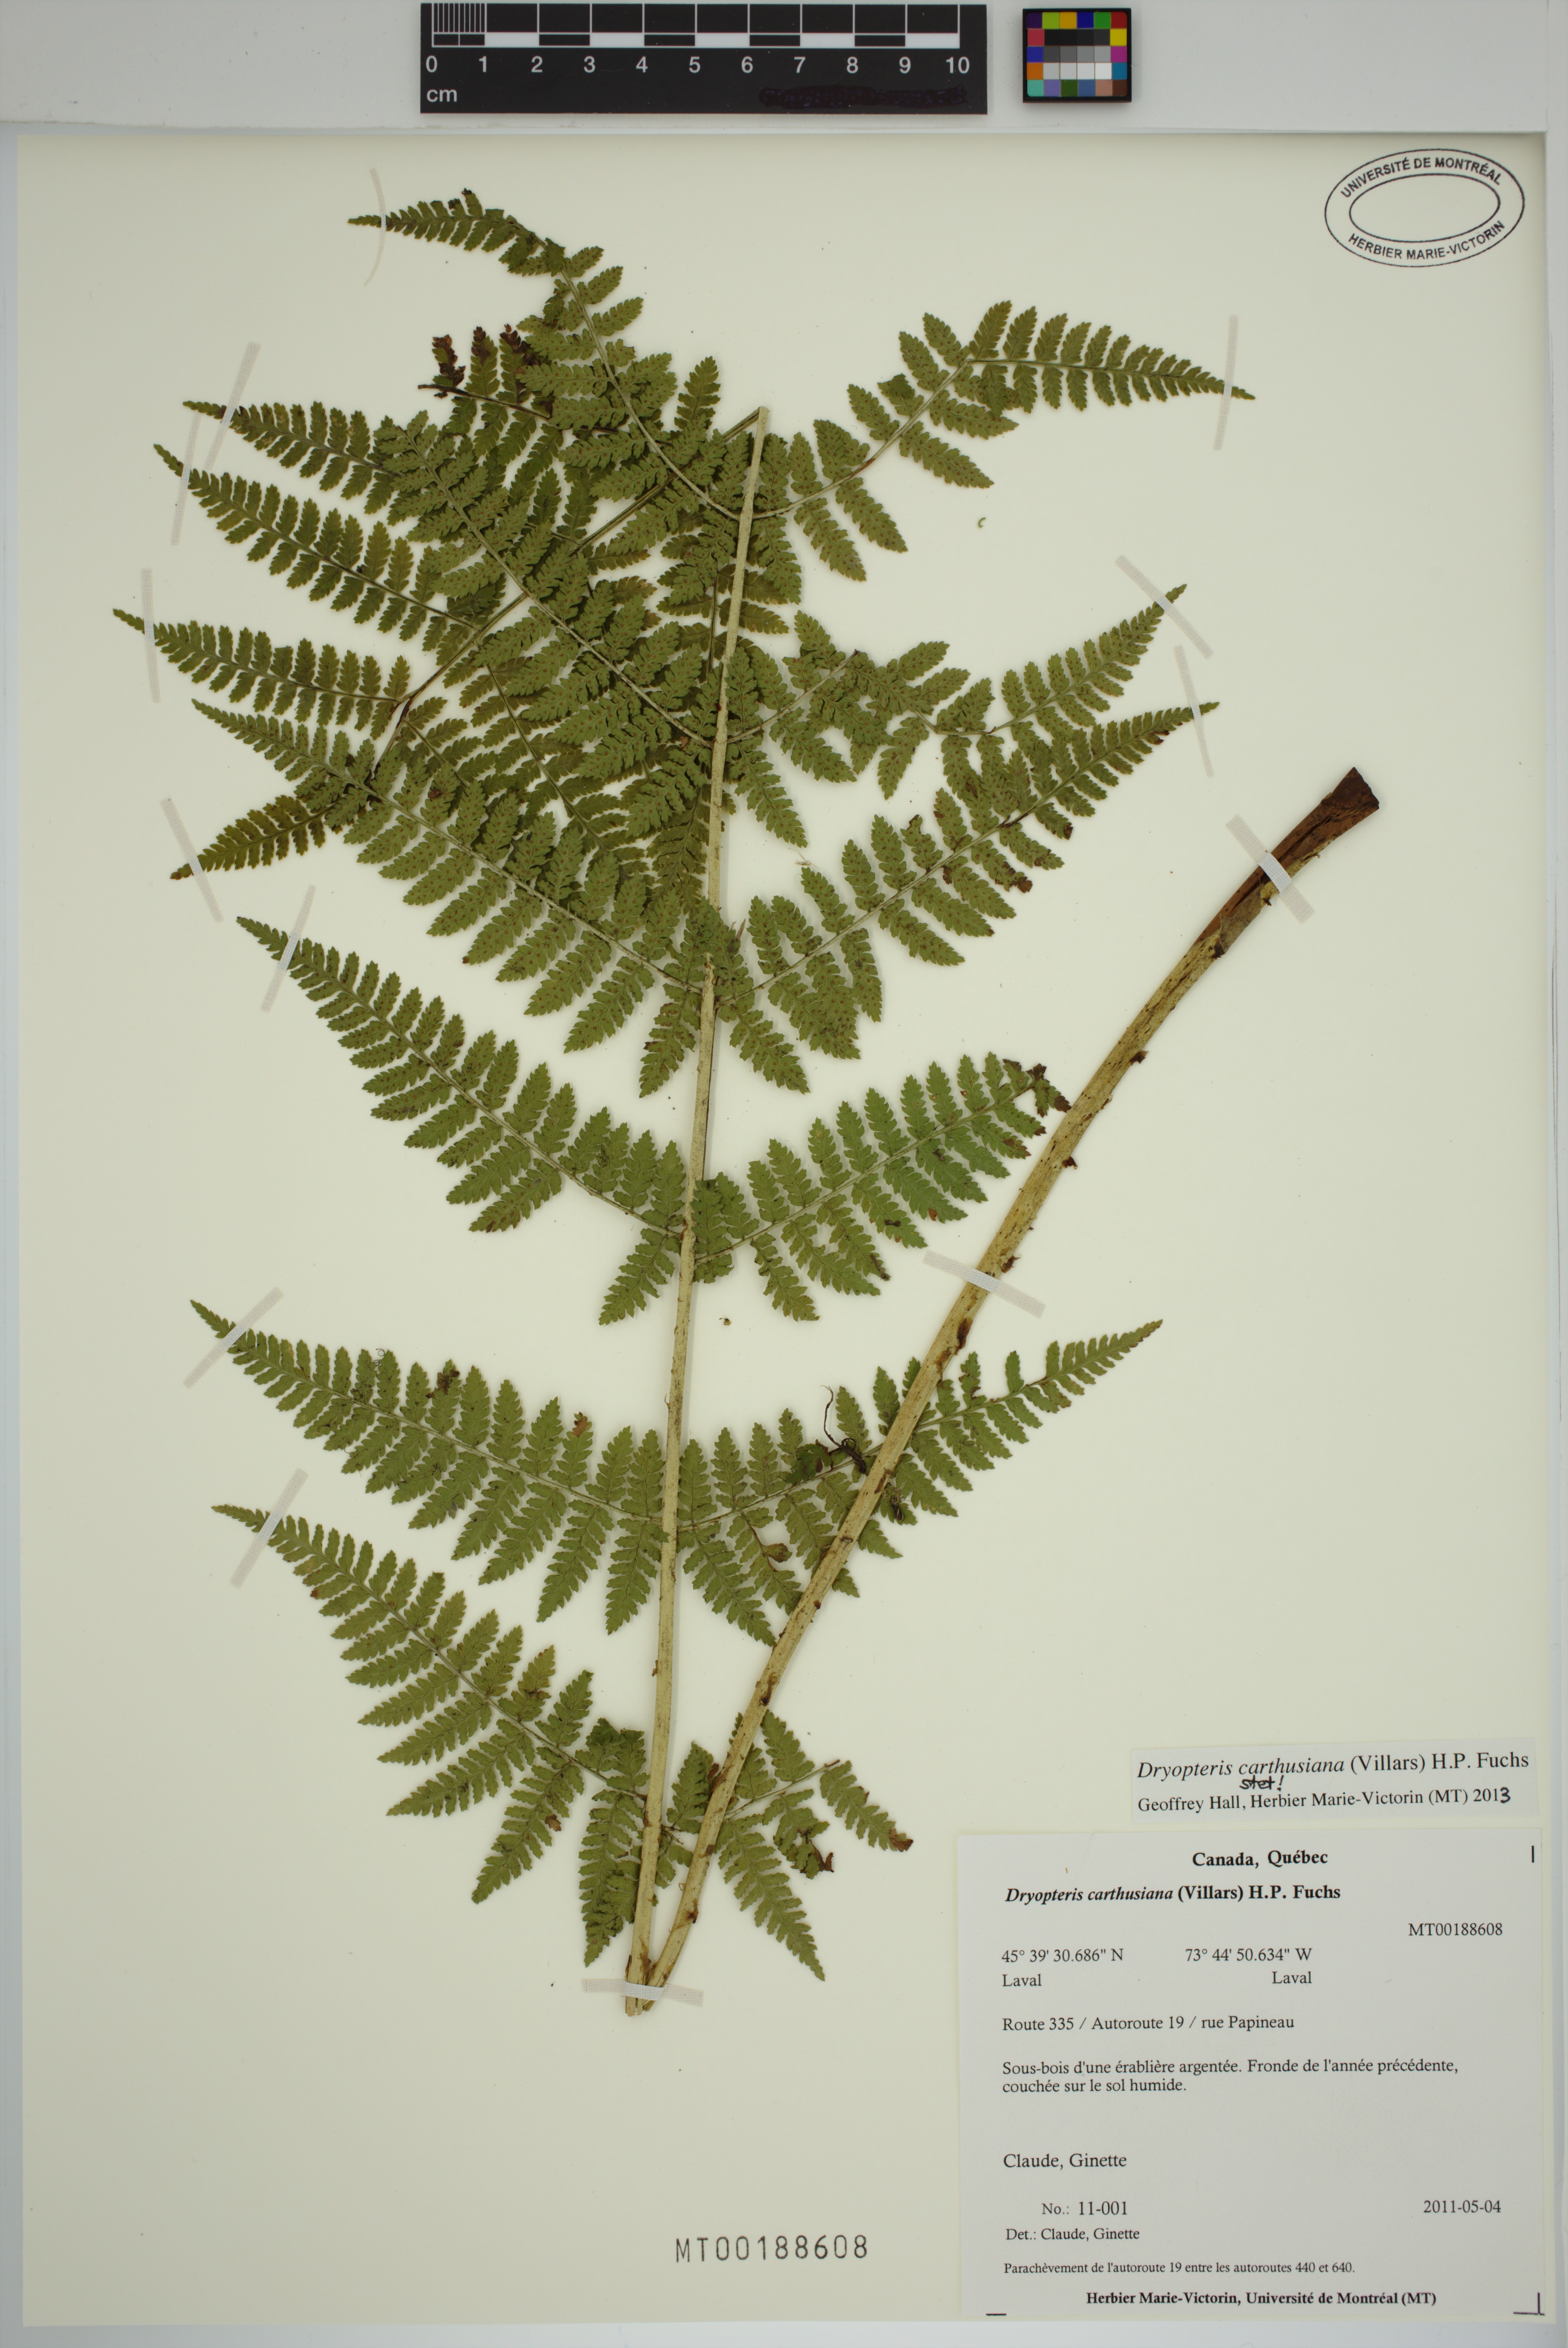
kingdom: Plantae
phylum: Tracheophyta
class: Polypodiopsida
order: Polypodiales
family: Dryopteridaceae
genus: Dryopteris
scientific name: Dryopteris carthusiana
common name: Narrow buckler-fern
